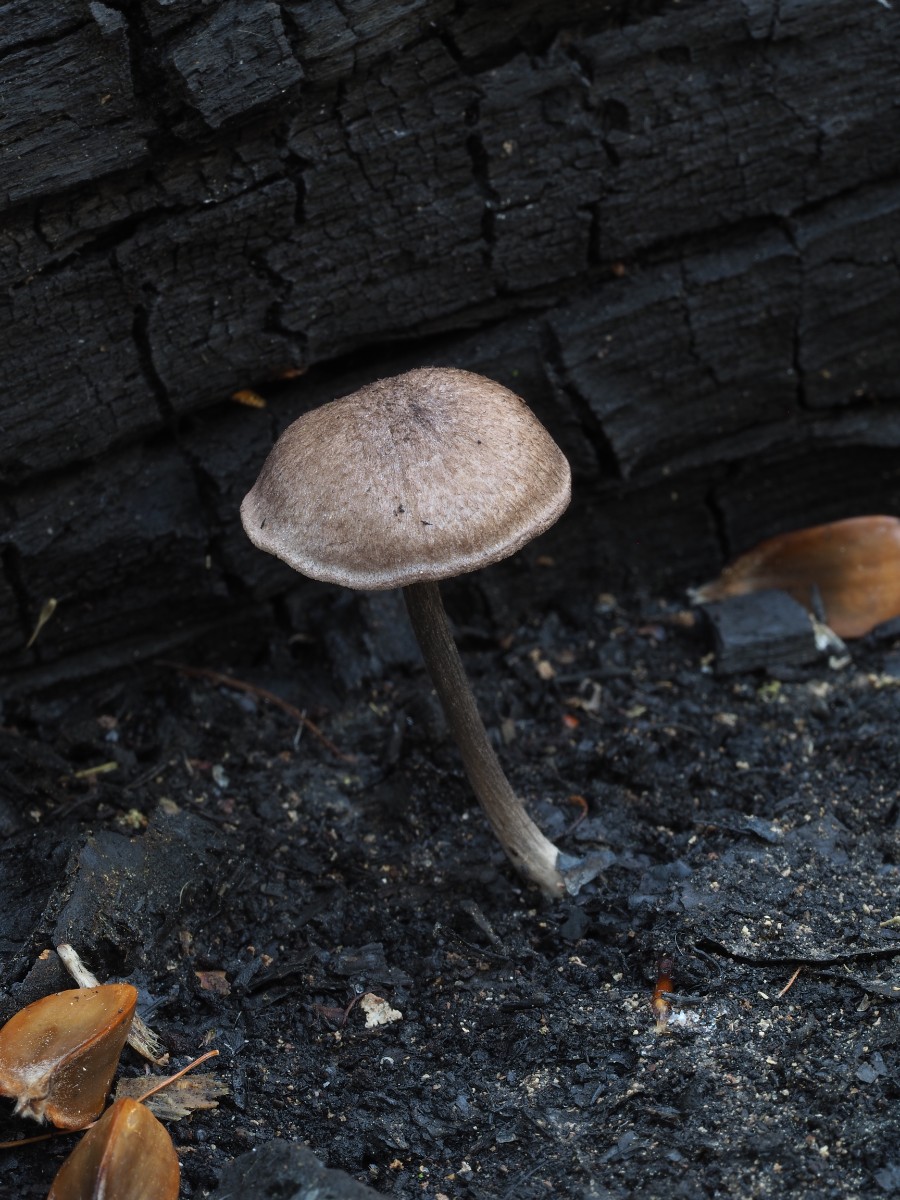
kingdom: Fungi
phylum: Basidiomycota
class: Agaricomycetes
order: Agaricales
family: Entolomataceae
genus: Entoloma
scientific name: Entoloma placidum
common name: bøge-rødblad
